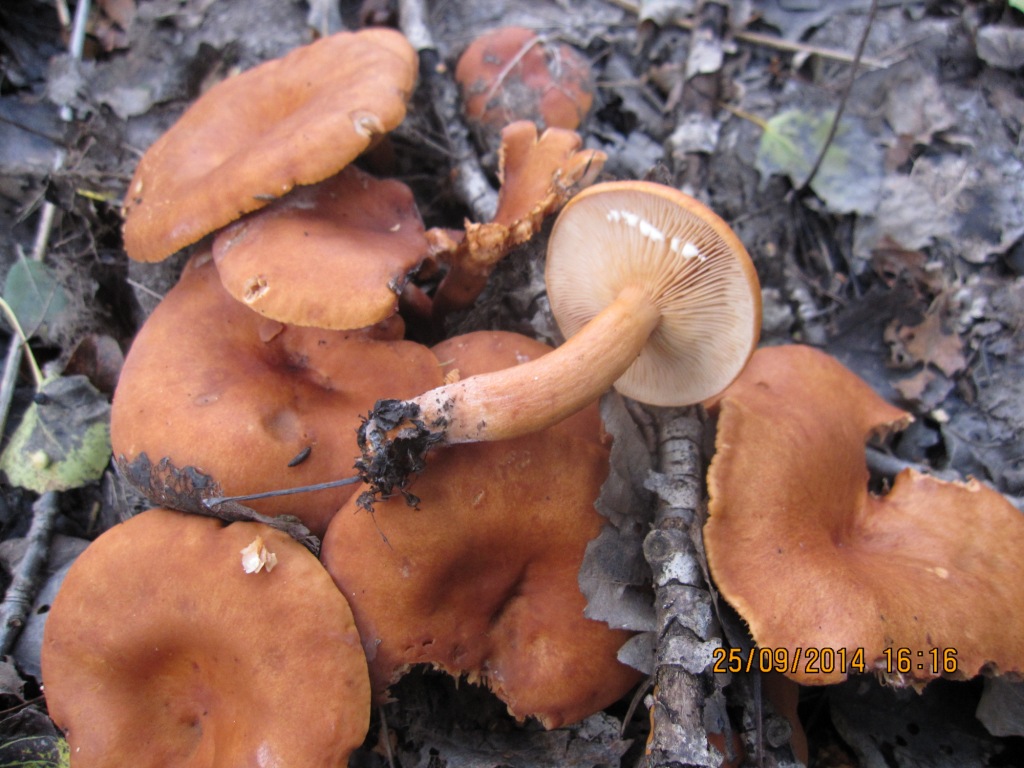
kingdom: Fungi
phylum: Basidiomycota
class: Agaricomycetes
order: Russulales
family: Russulaceae
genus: Lactarius
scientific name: Lactarius lacunarum
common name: sump-mælkehat
